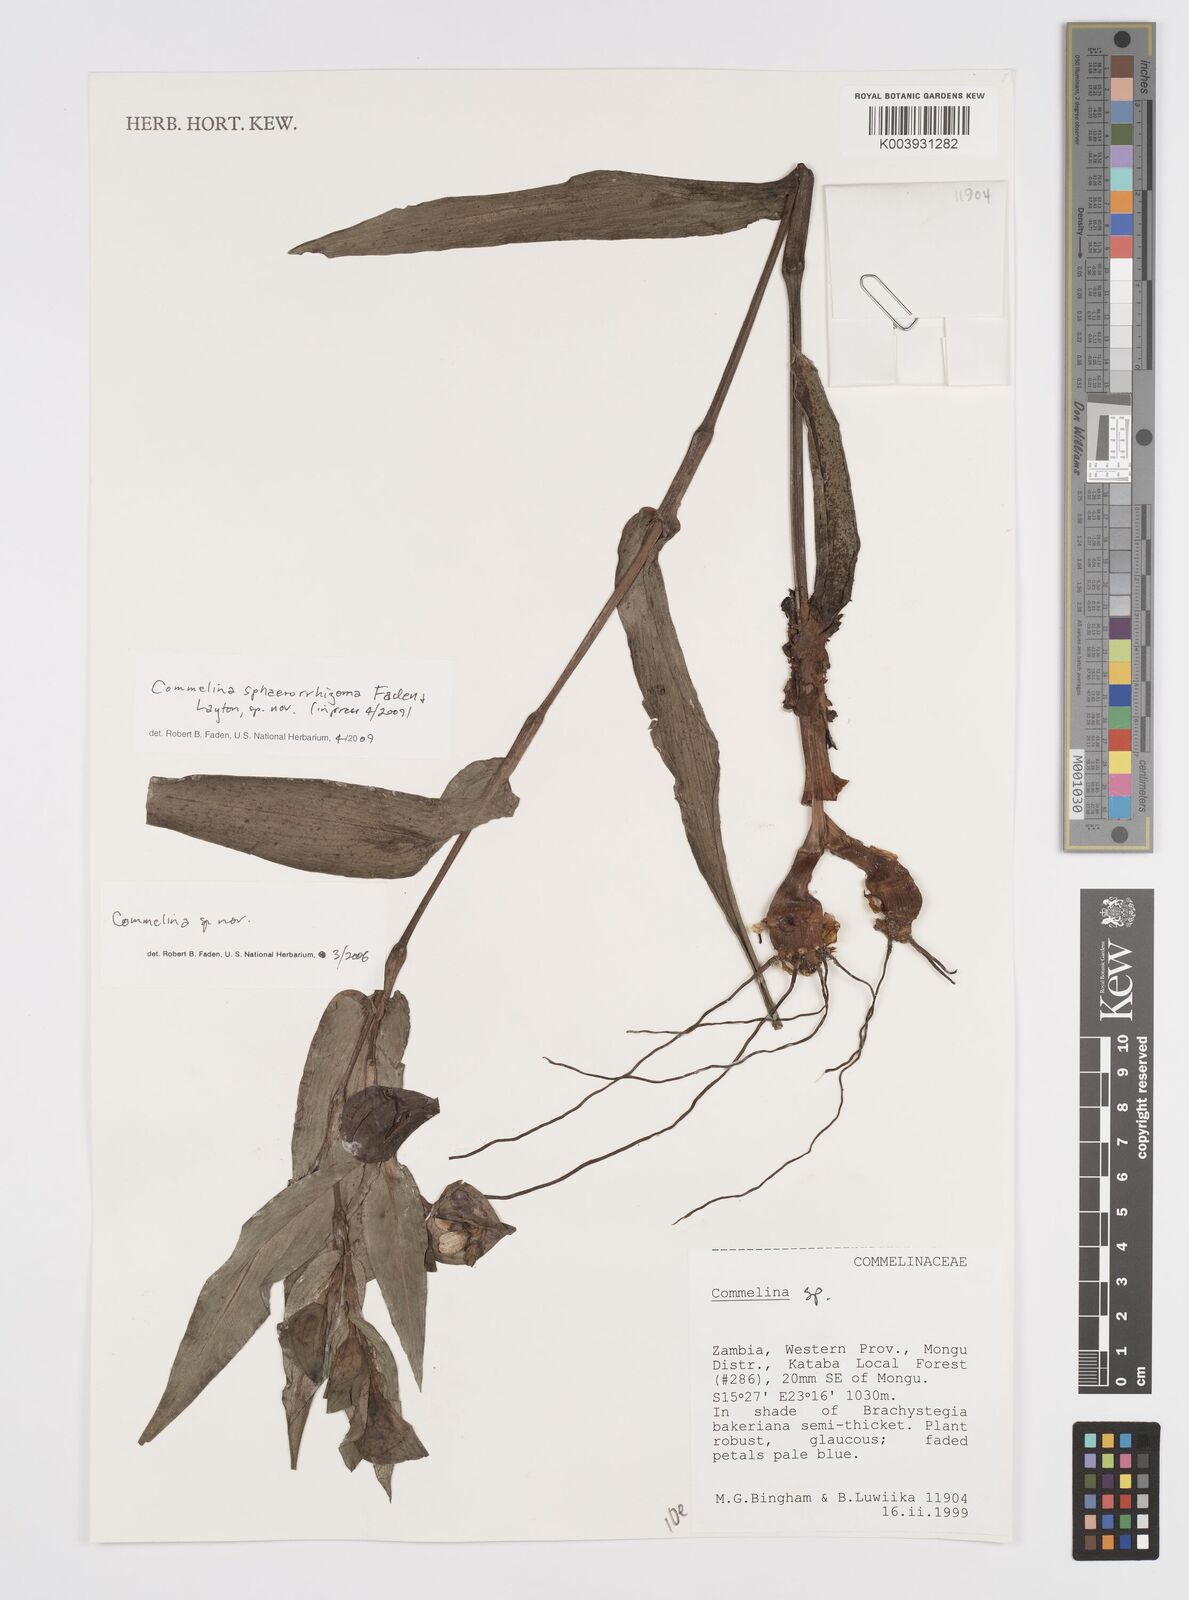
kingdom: Plantae
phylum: Tracheophyta
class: Liliopsida
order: Commelinales
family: Commelinaceae
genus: Commelina
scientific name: Commelina sphaerorrhizoma
